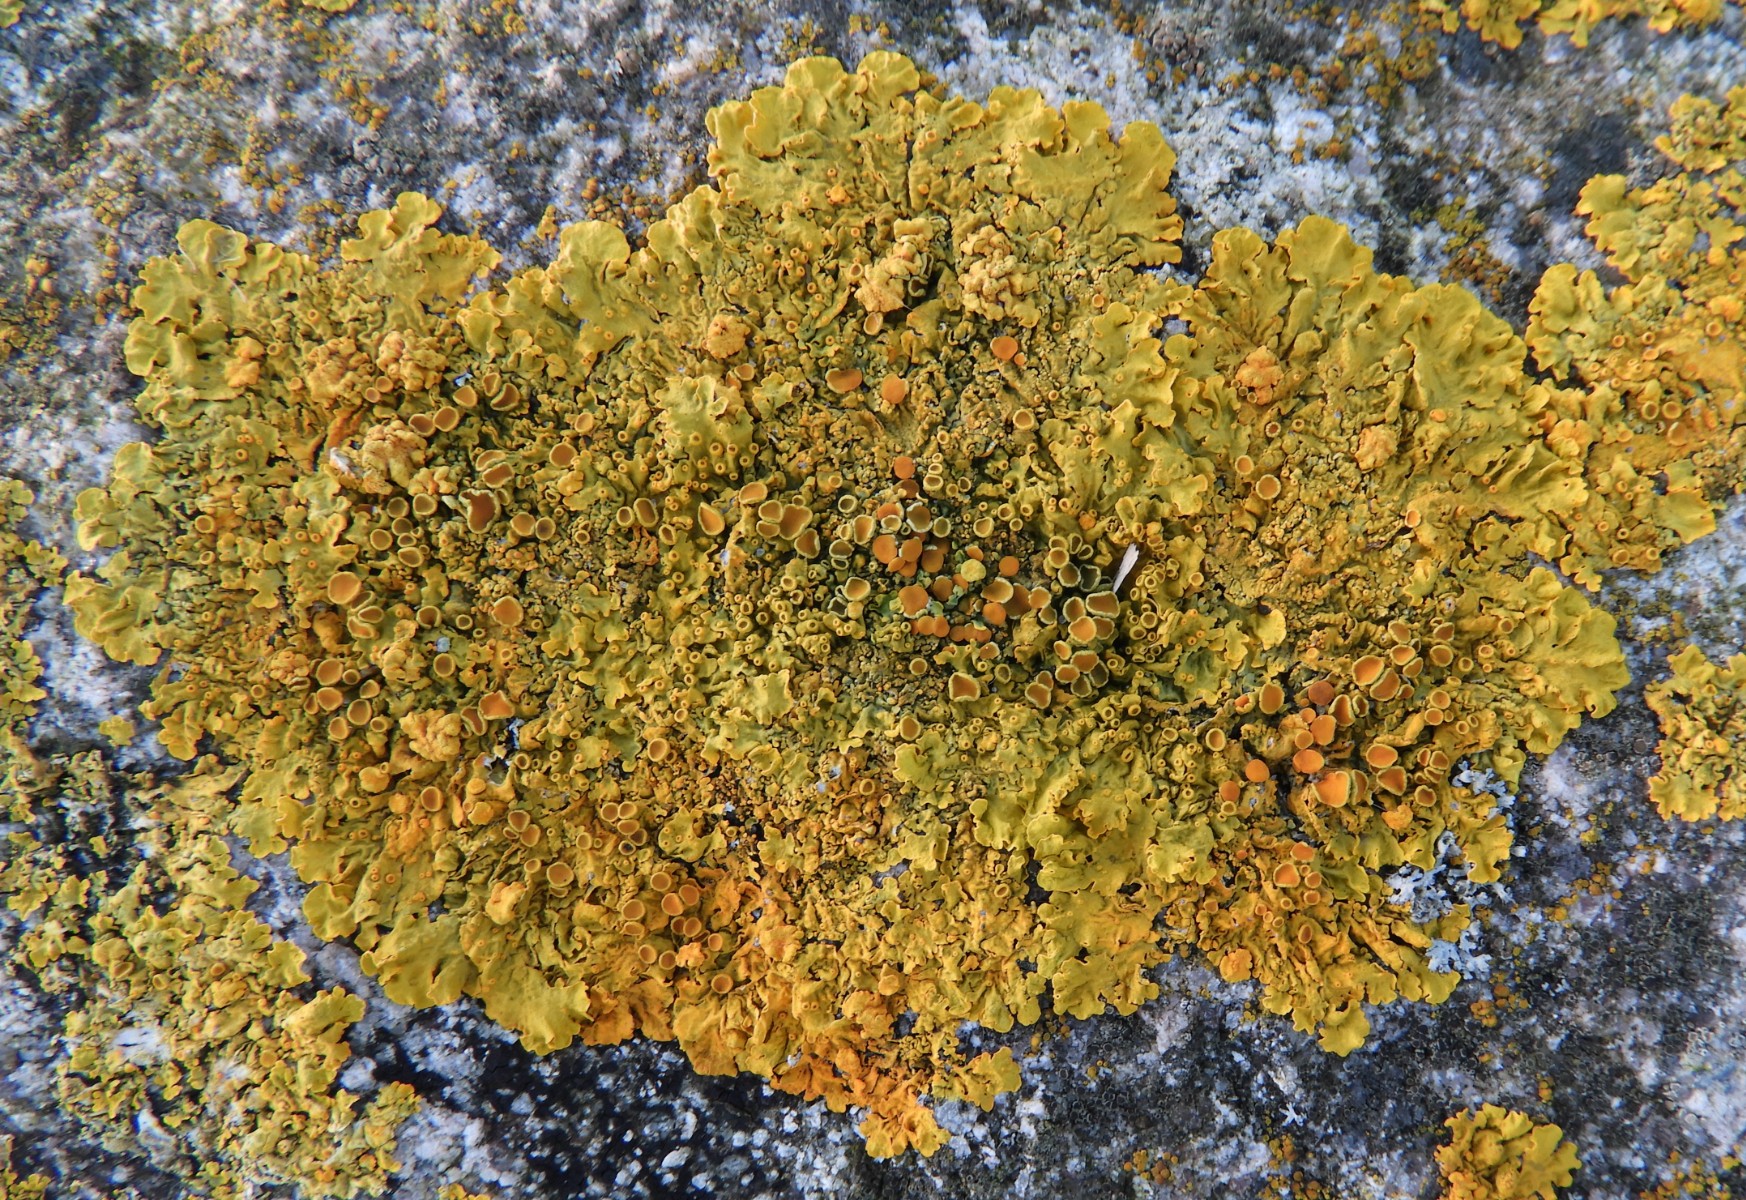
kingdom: Fungi
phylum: Ascomycota
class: Lecanoromycetes
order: Teloschistales
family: Teloschistaceae
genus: Xanthoria
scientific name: Xanthoria parietina
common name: almindelig væggelav
